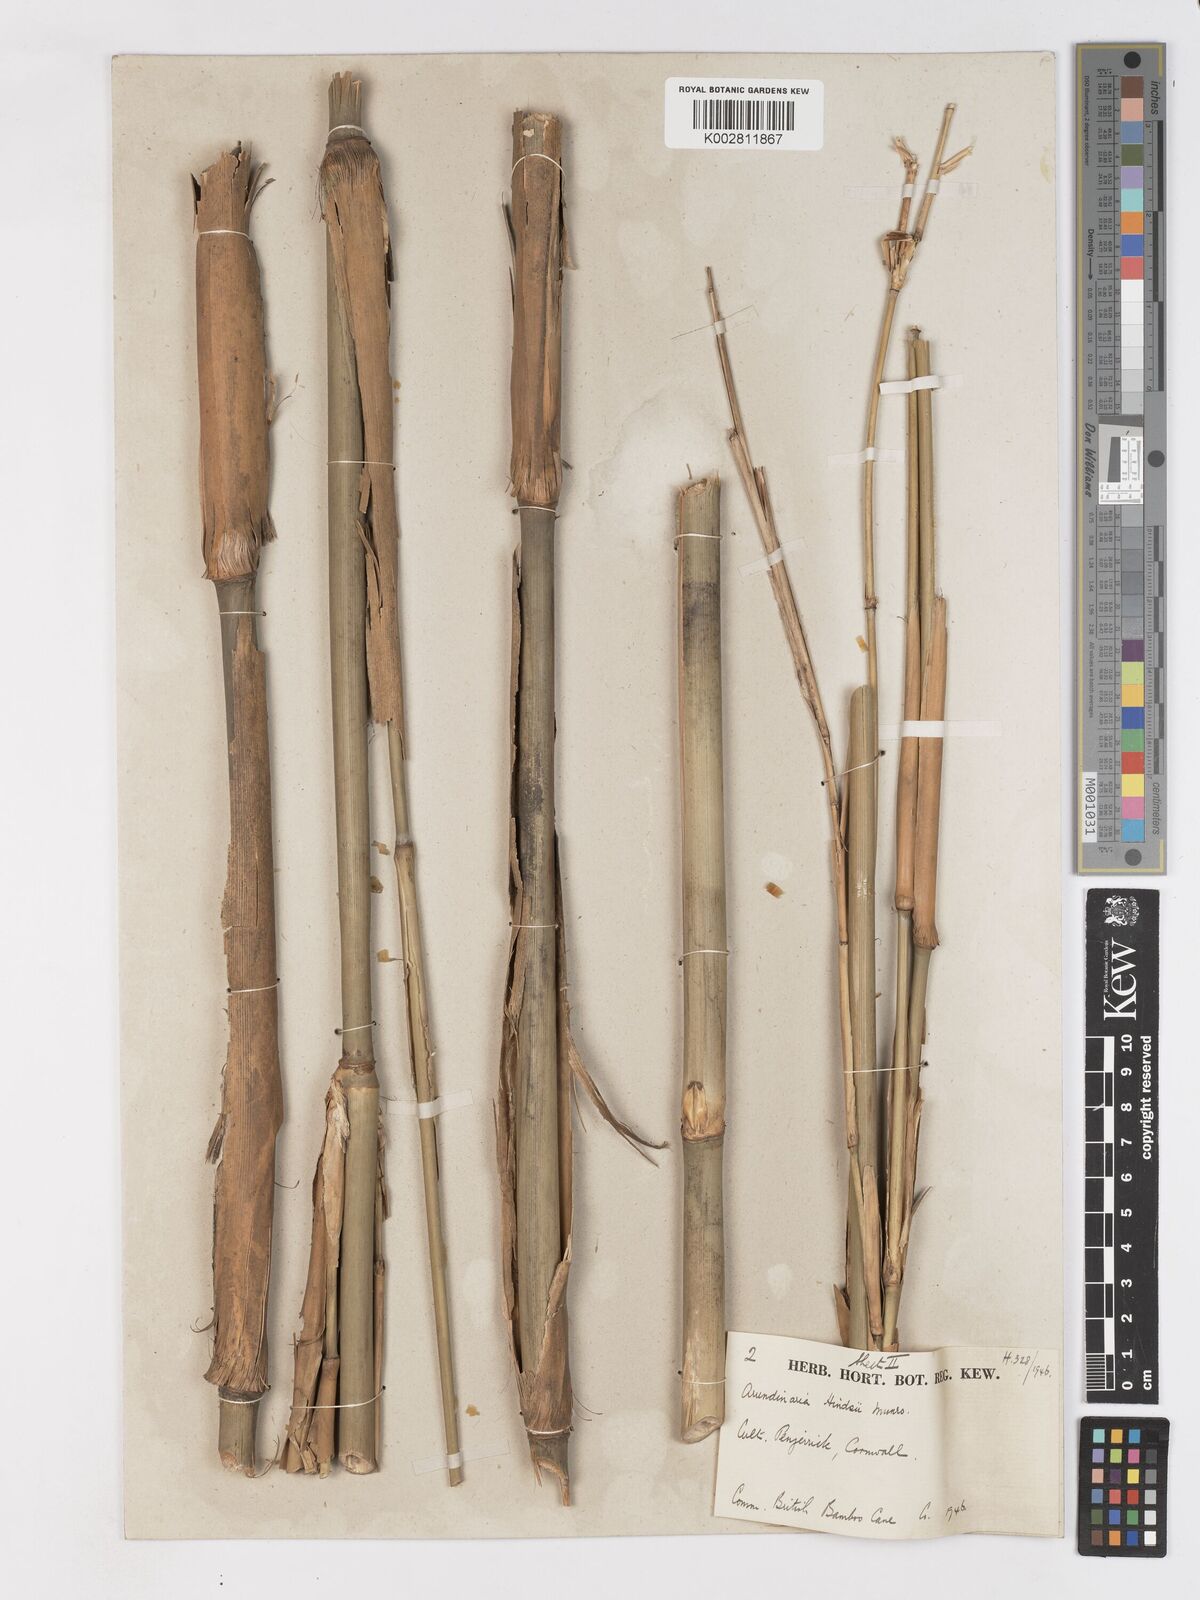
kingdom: Plantae
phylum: Tracheophyta
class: Liliopsida
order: Poales
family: Poaceae
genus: Pleioblastus
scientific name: Pleioblastus simonii
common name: Simon bamboo
